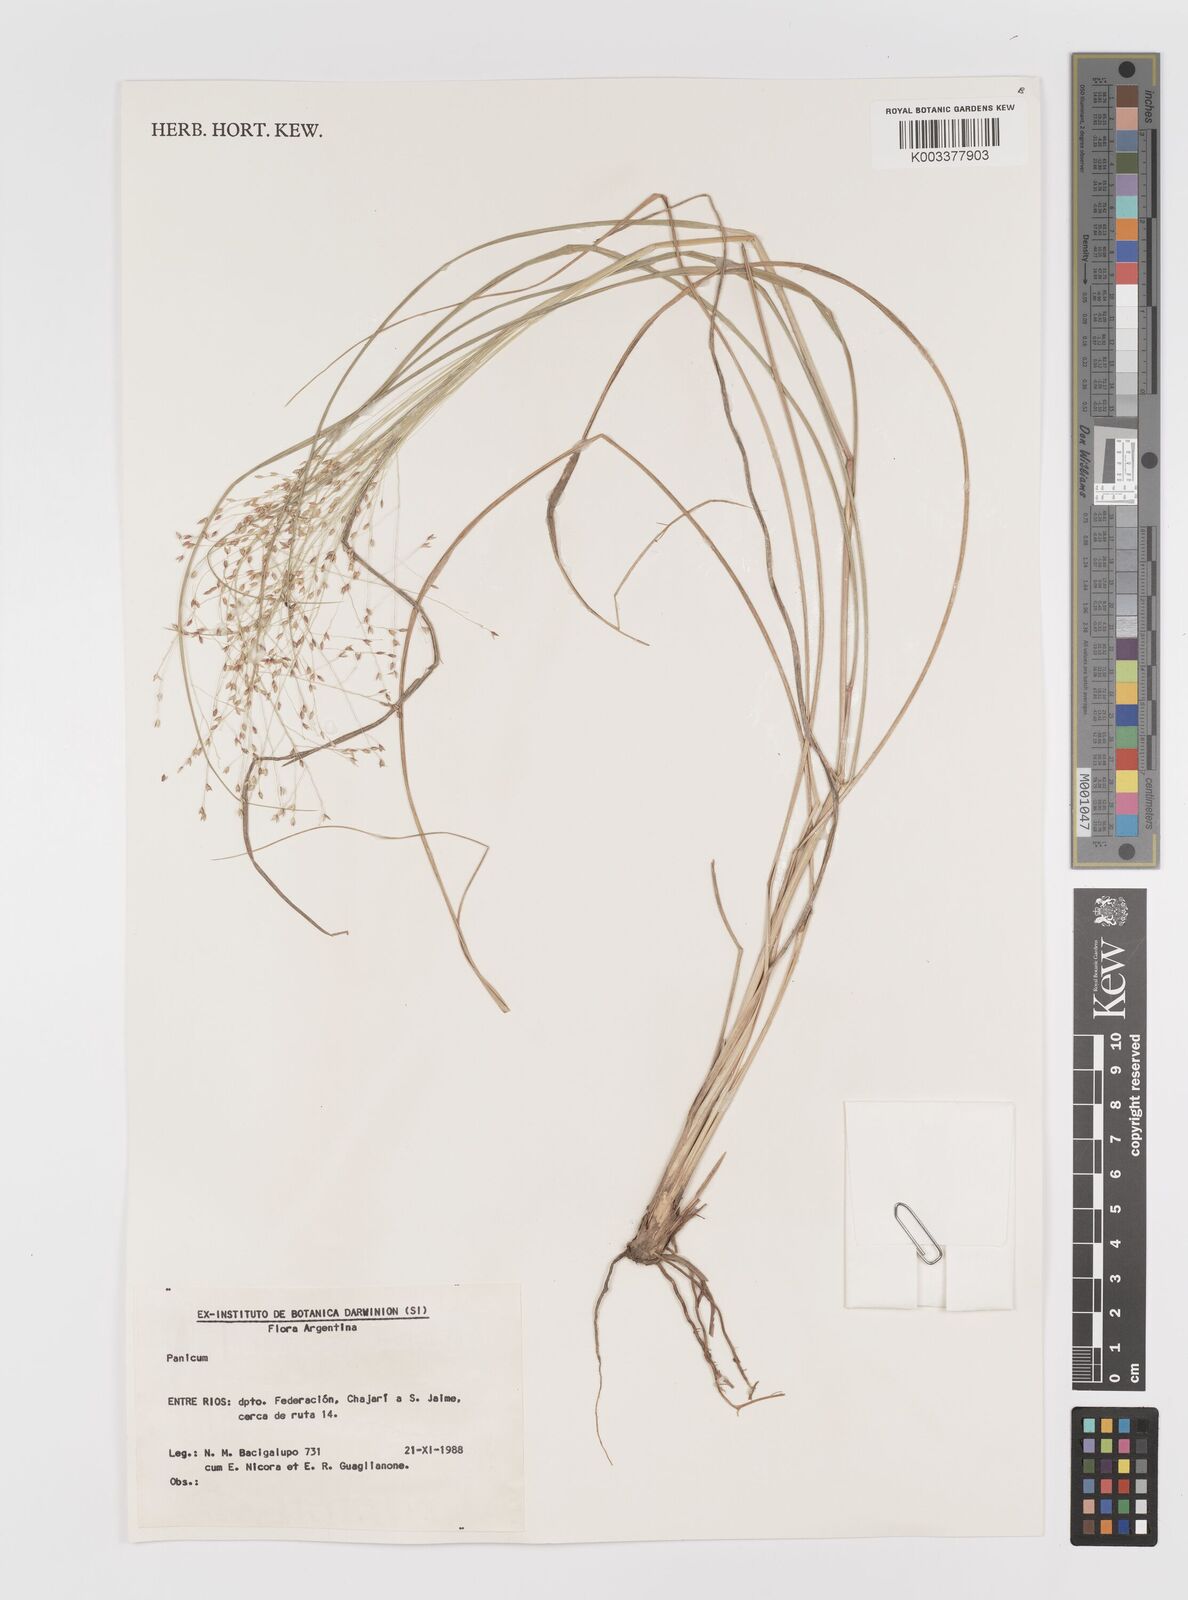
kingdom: Plantae
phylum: Tracheophyta
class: Liliopsida
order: Poales
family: Poaceae
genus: Panicum
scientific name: Panicum
